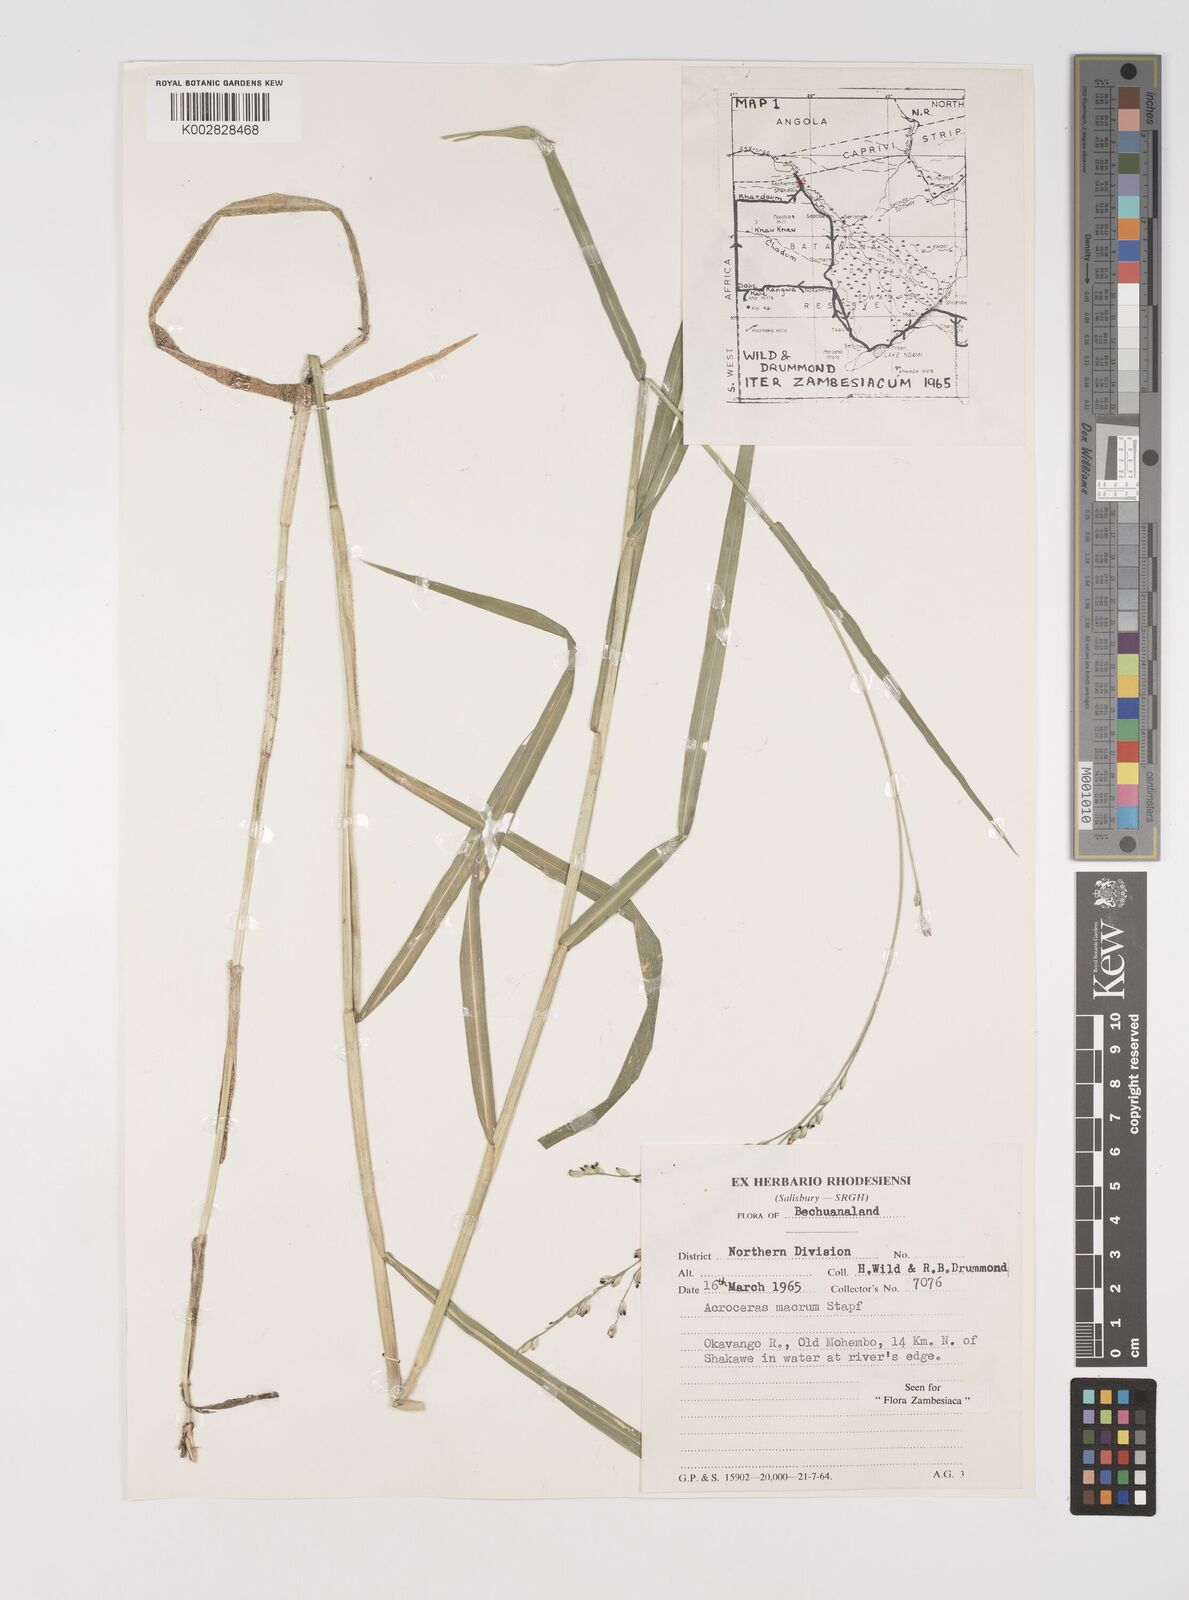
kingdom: Plantae
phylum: Tracheophyta
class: Liliopsida
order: Poales
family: Poaceae
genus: Acroceras
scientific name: Acroceras macrum
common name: Nyl grass
